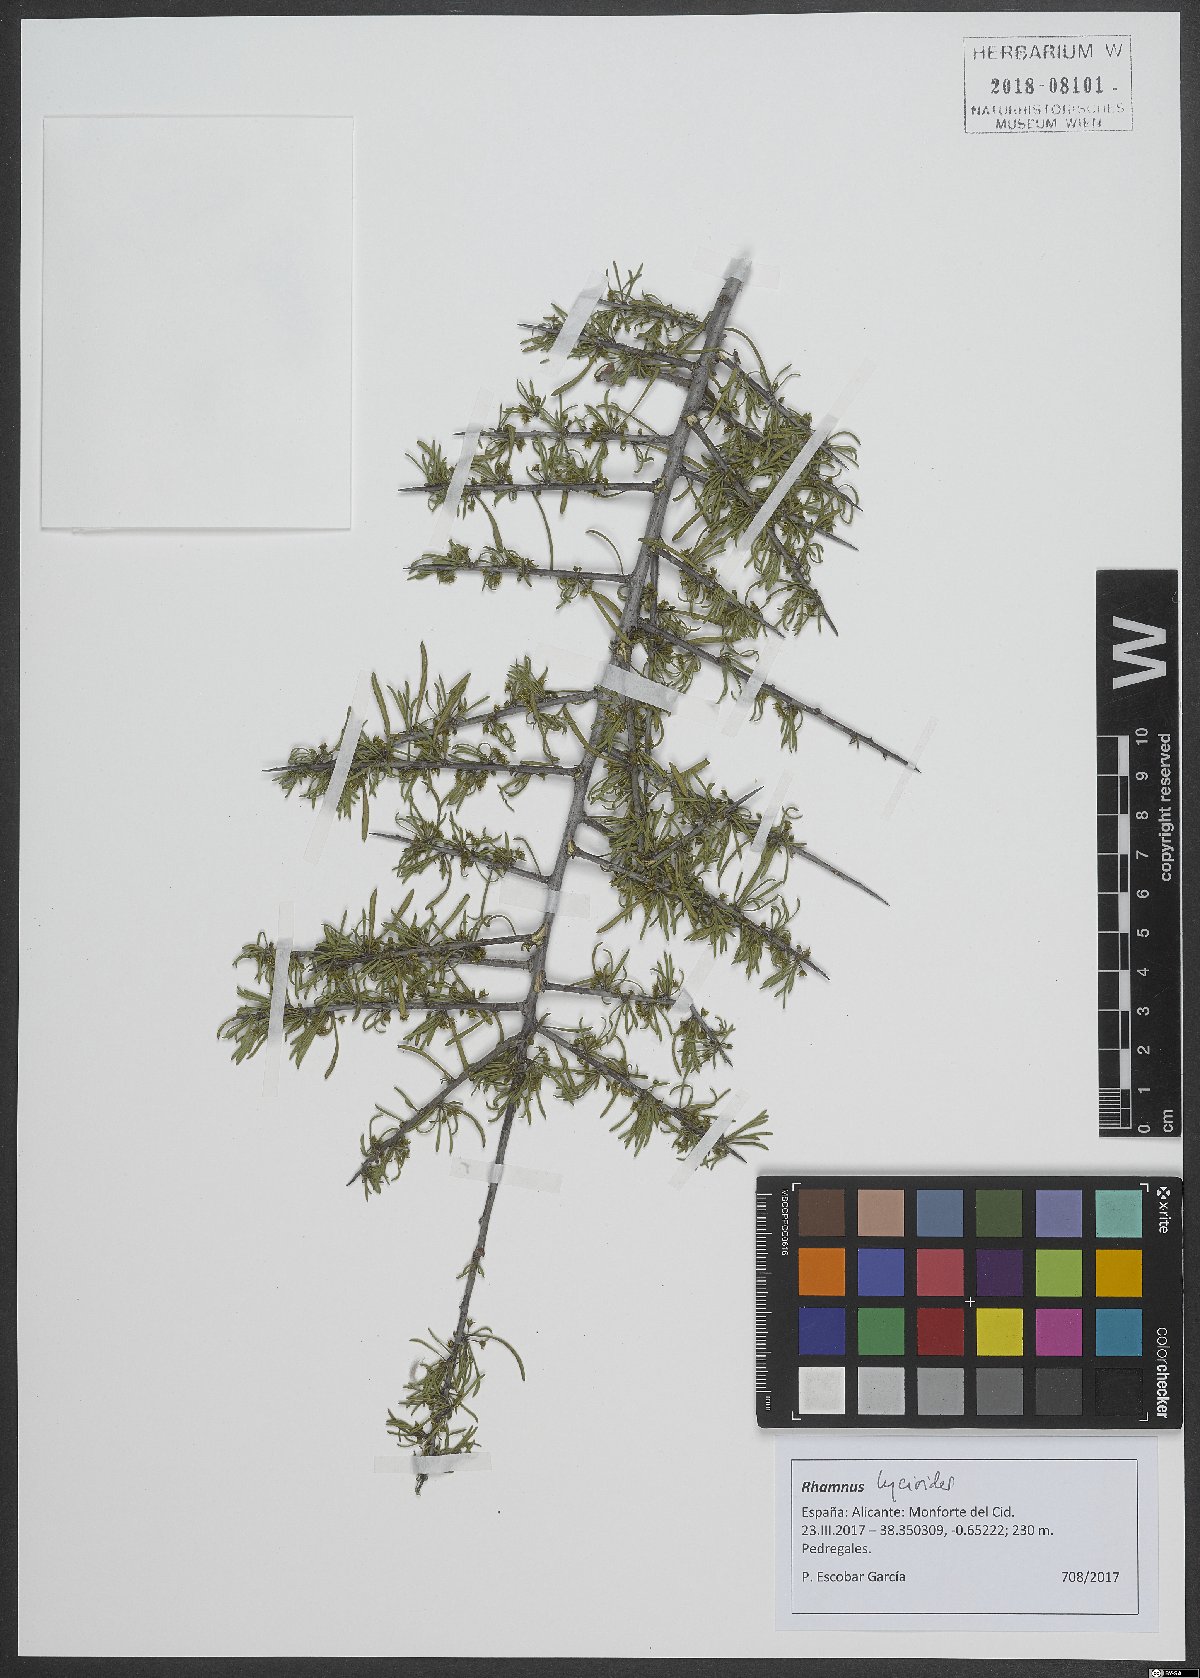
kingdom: Plantae
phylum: Tracheophyta
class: Magnoliopsida
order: Rosales
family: Rhamnaceae
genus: Rhamnus
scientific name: Rhamnus lycioides
